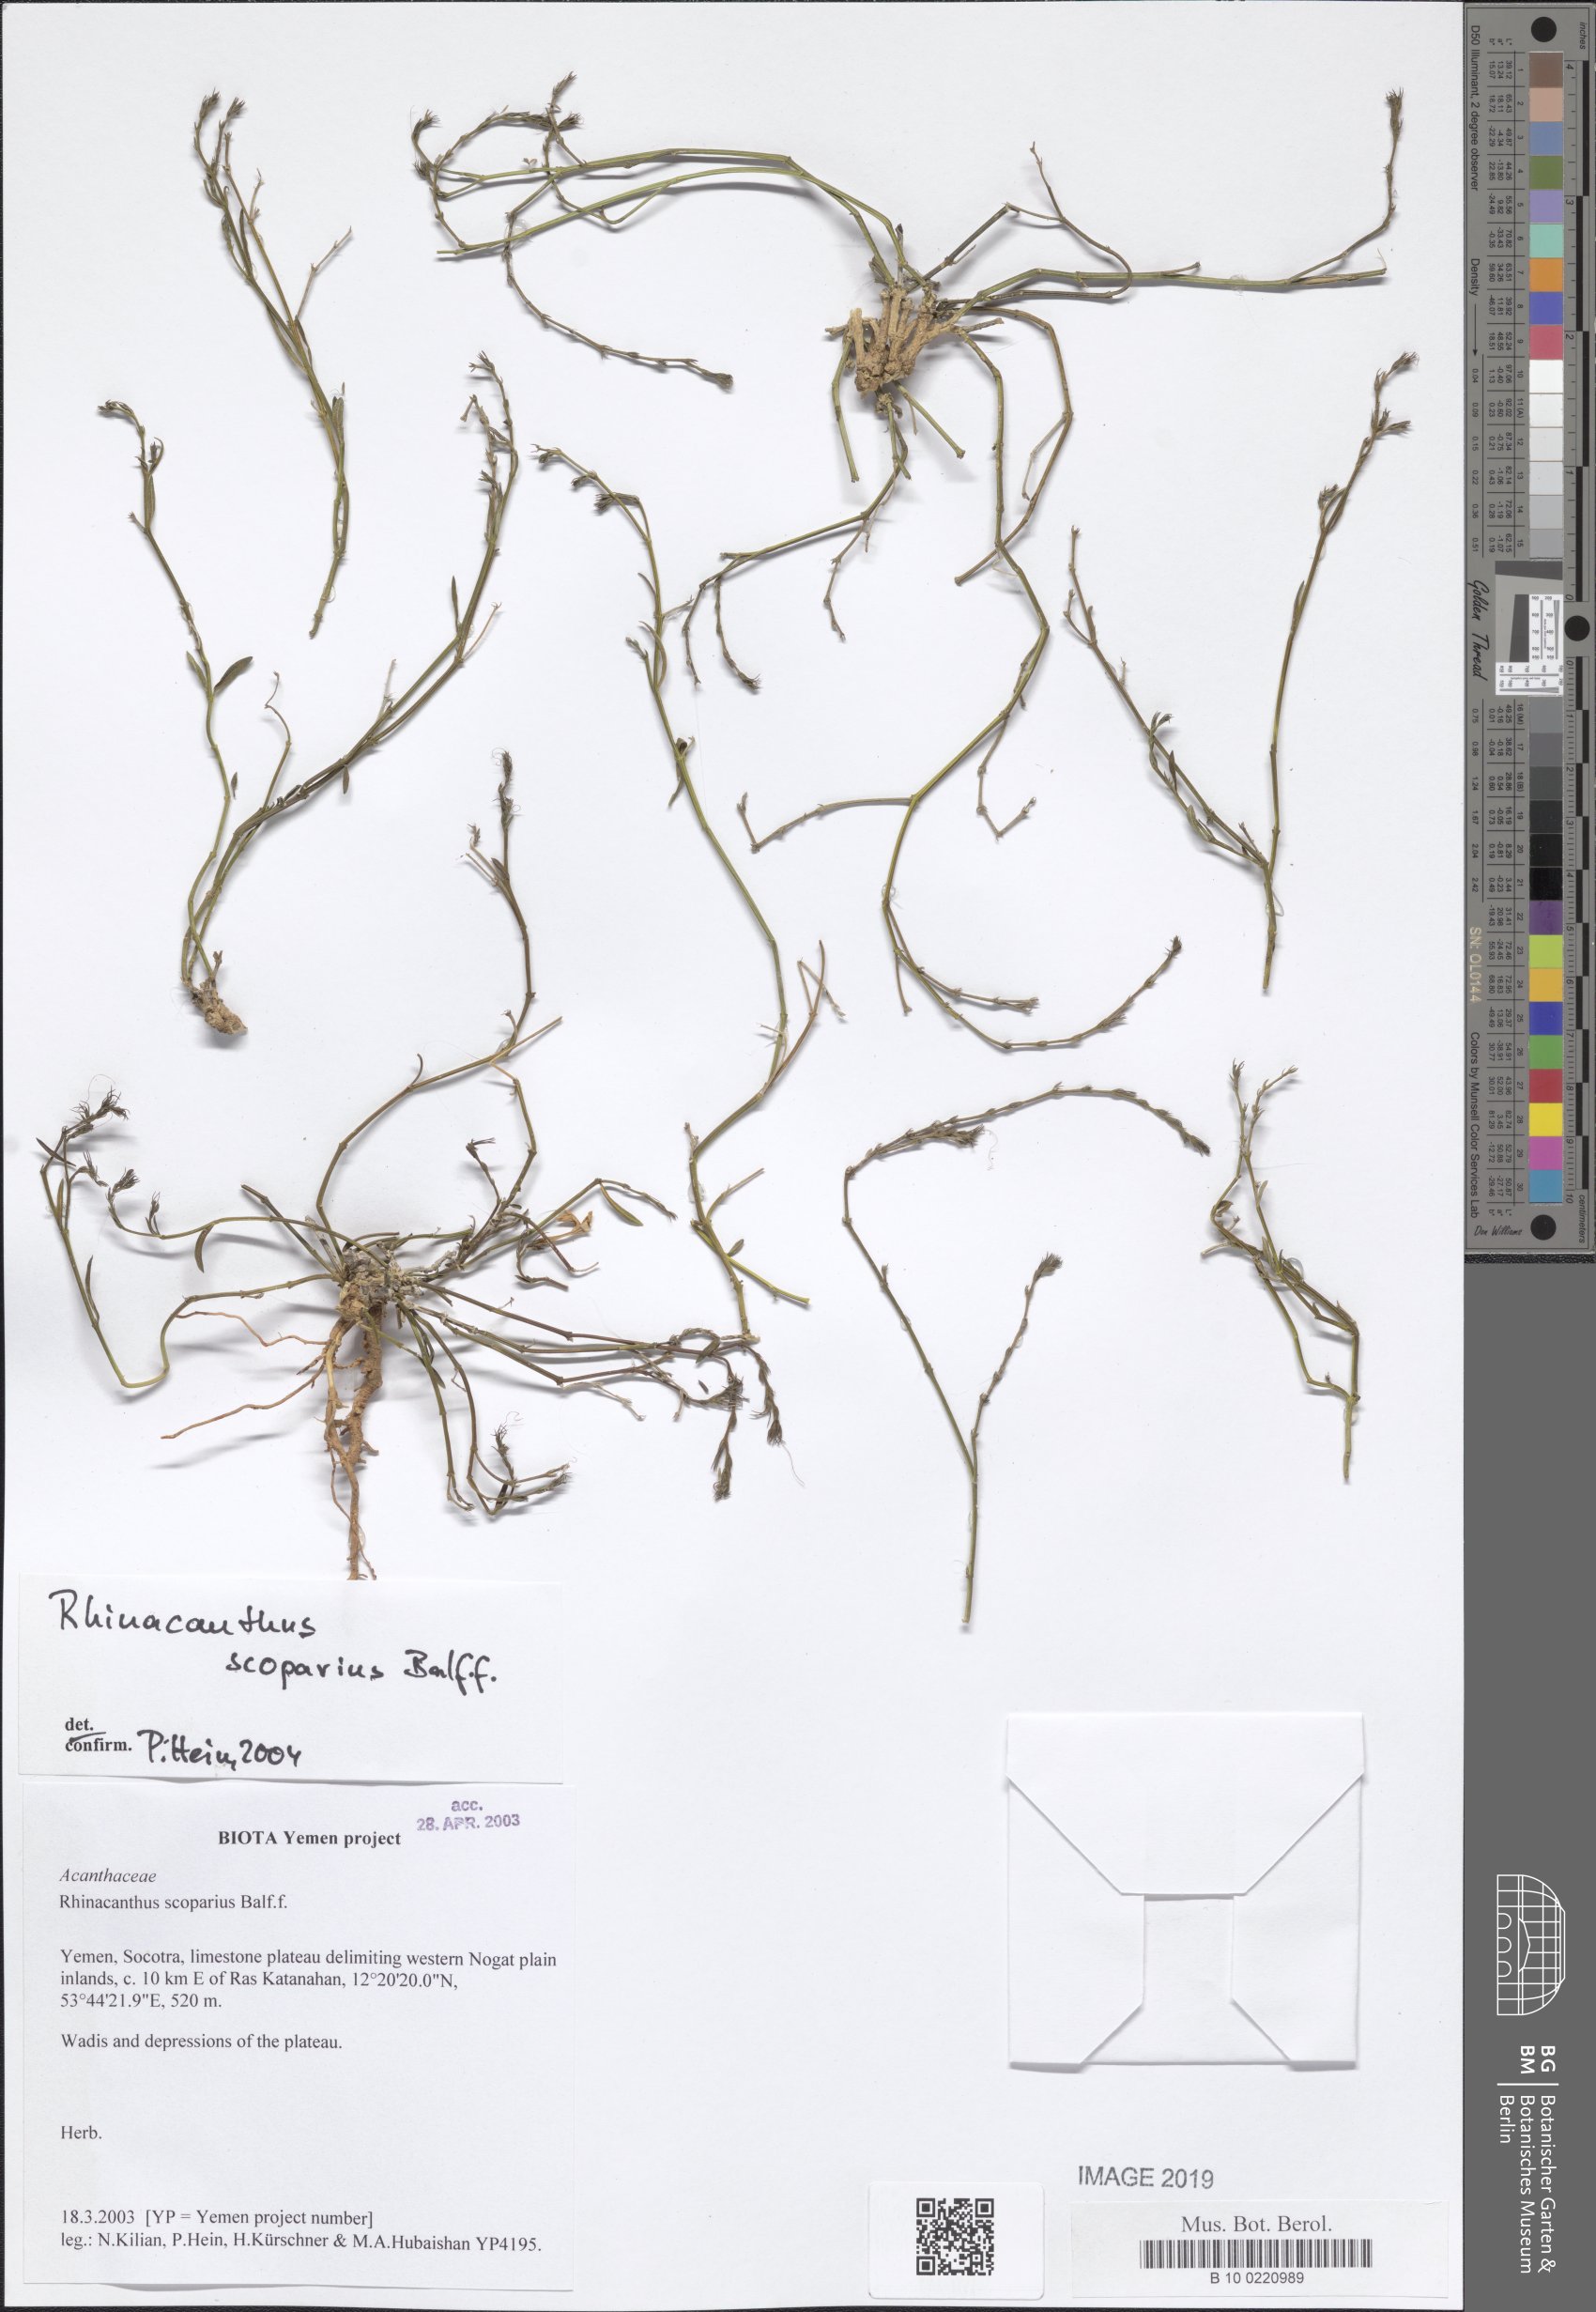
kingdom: Plantae
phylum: Tracheophyta
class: Magnoliopsida
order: Lamiales
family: Acanthaceae
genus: Rhinacanthus
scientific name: Rhinacanthus scoparius
